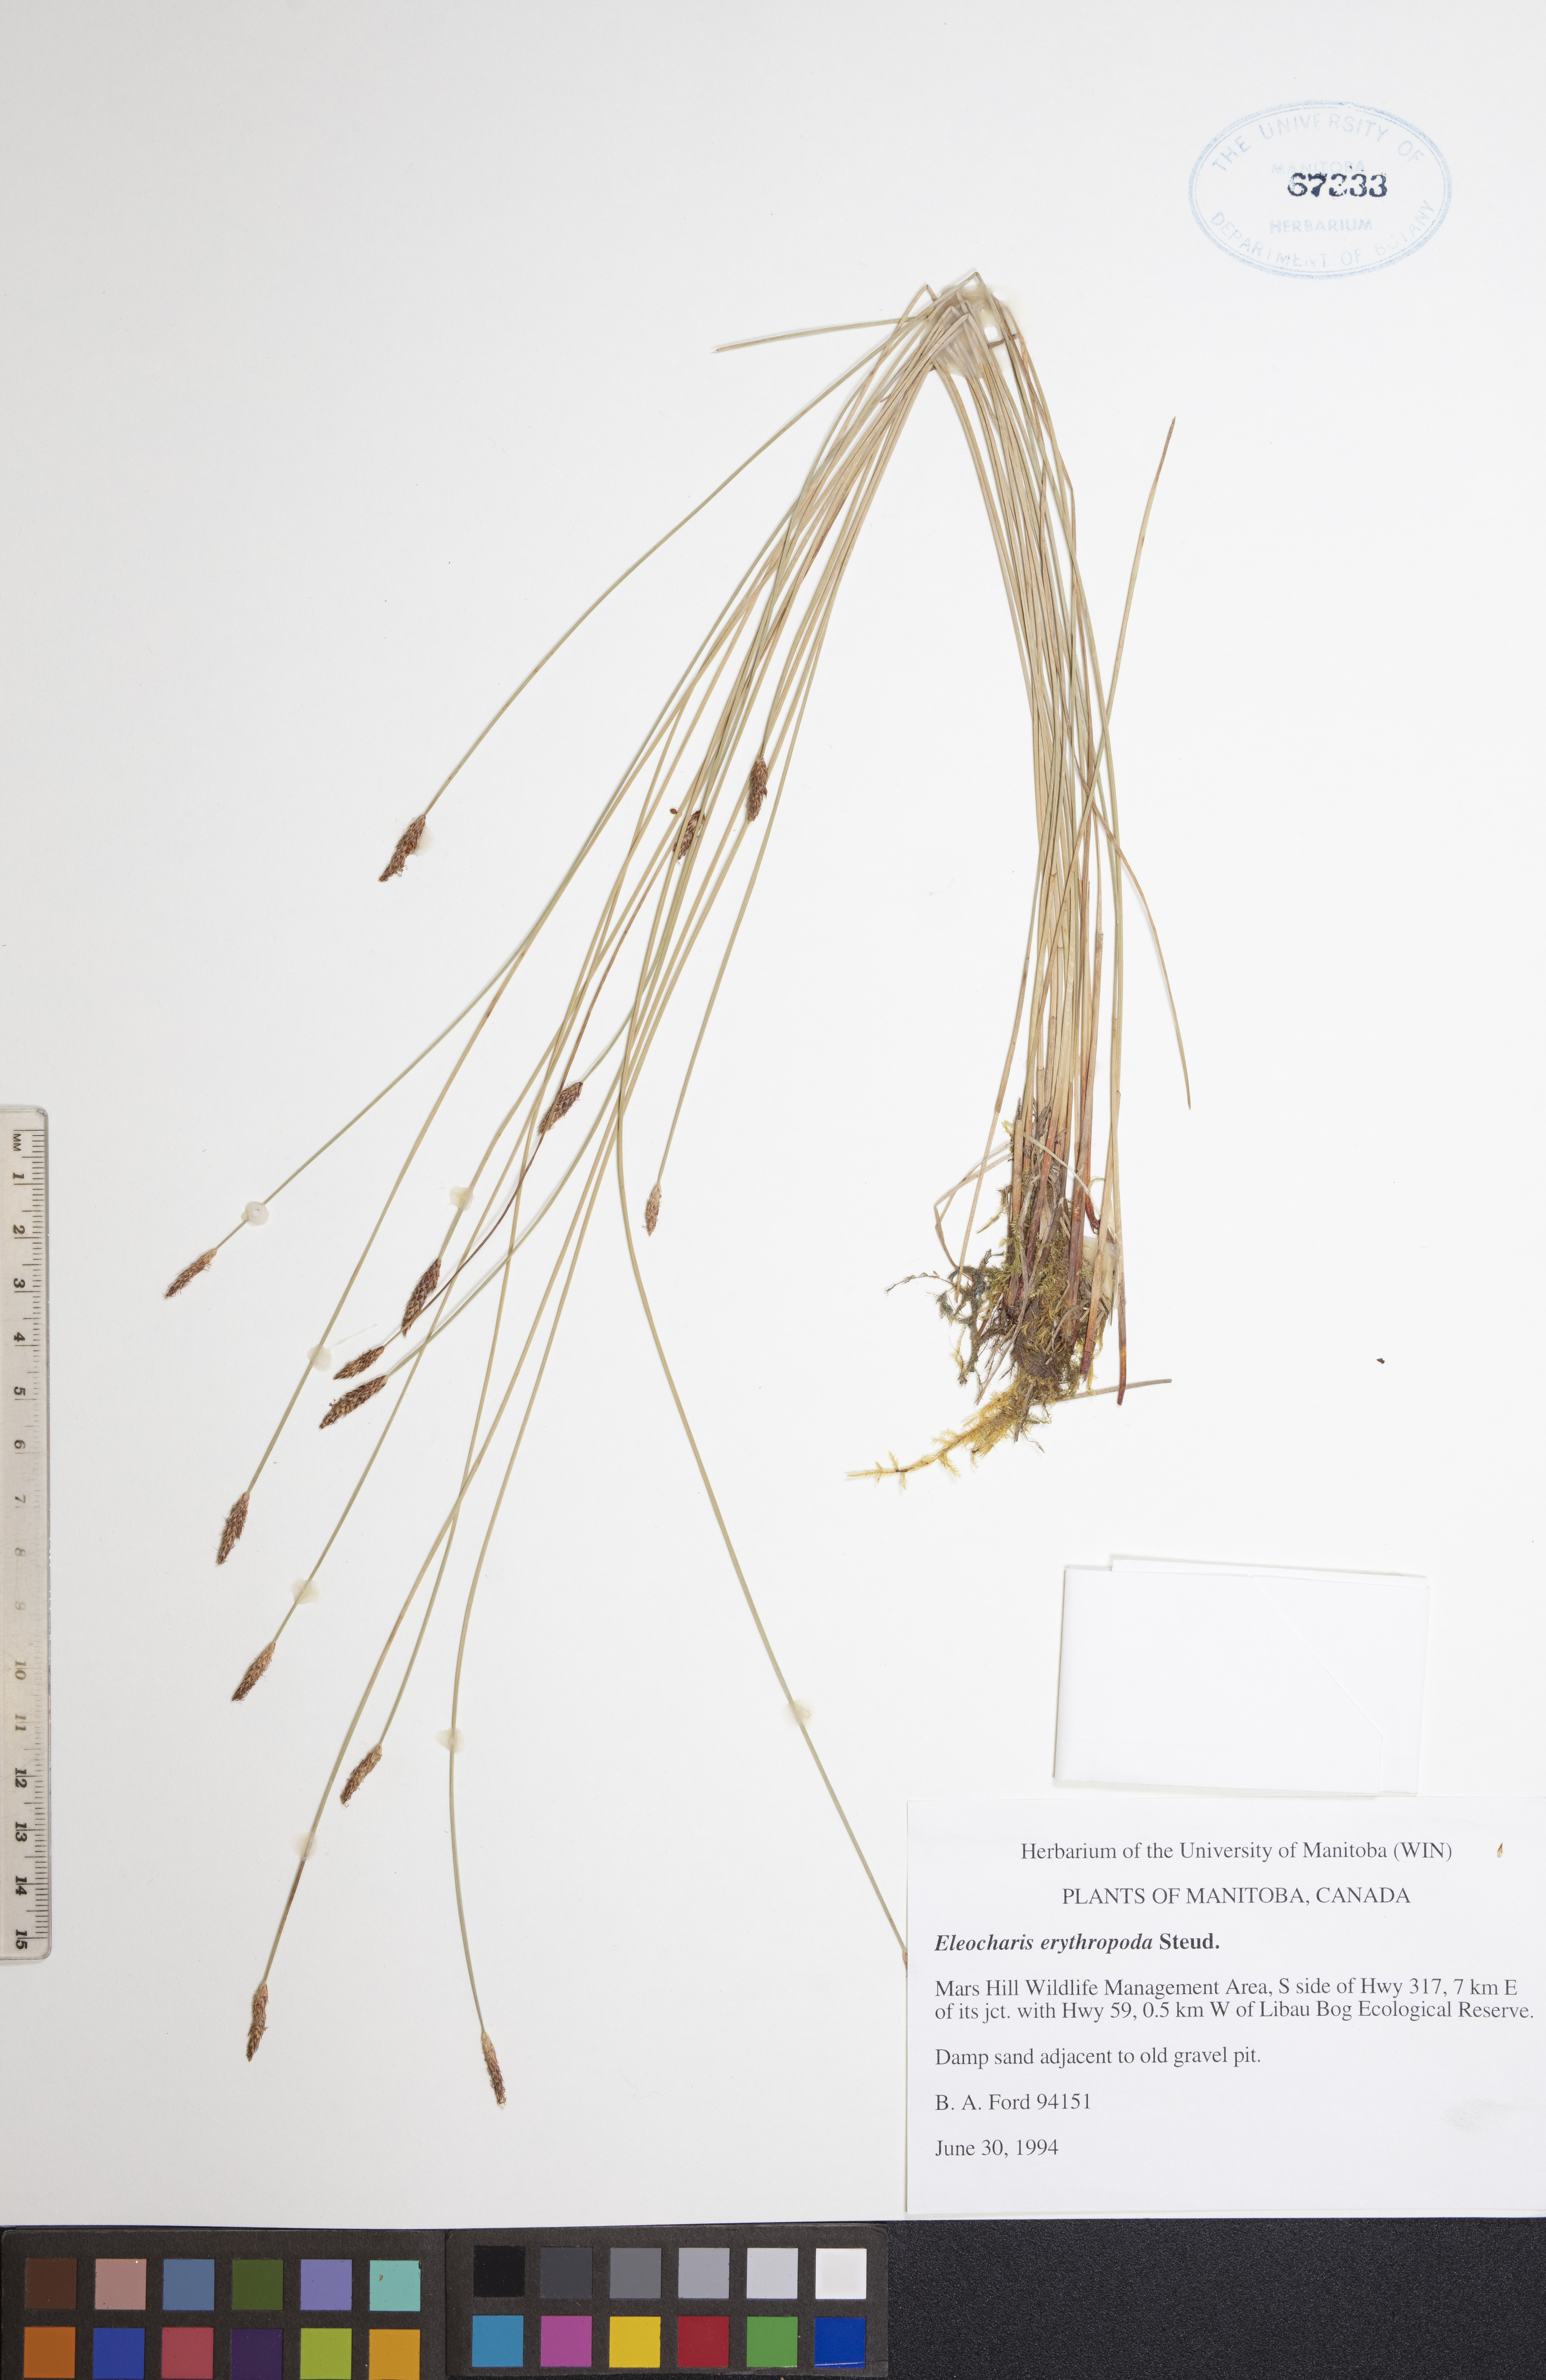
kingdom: Plantae
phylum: Tracheophyta
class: Liliopsida
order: Poales
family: Cyperaceae
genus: Eleocharis
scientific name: Eleocharis erythropoda
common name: Bald spikerush
